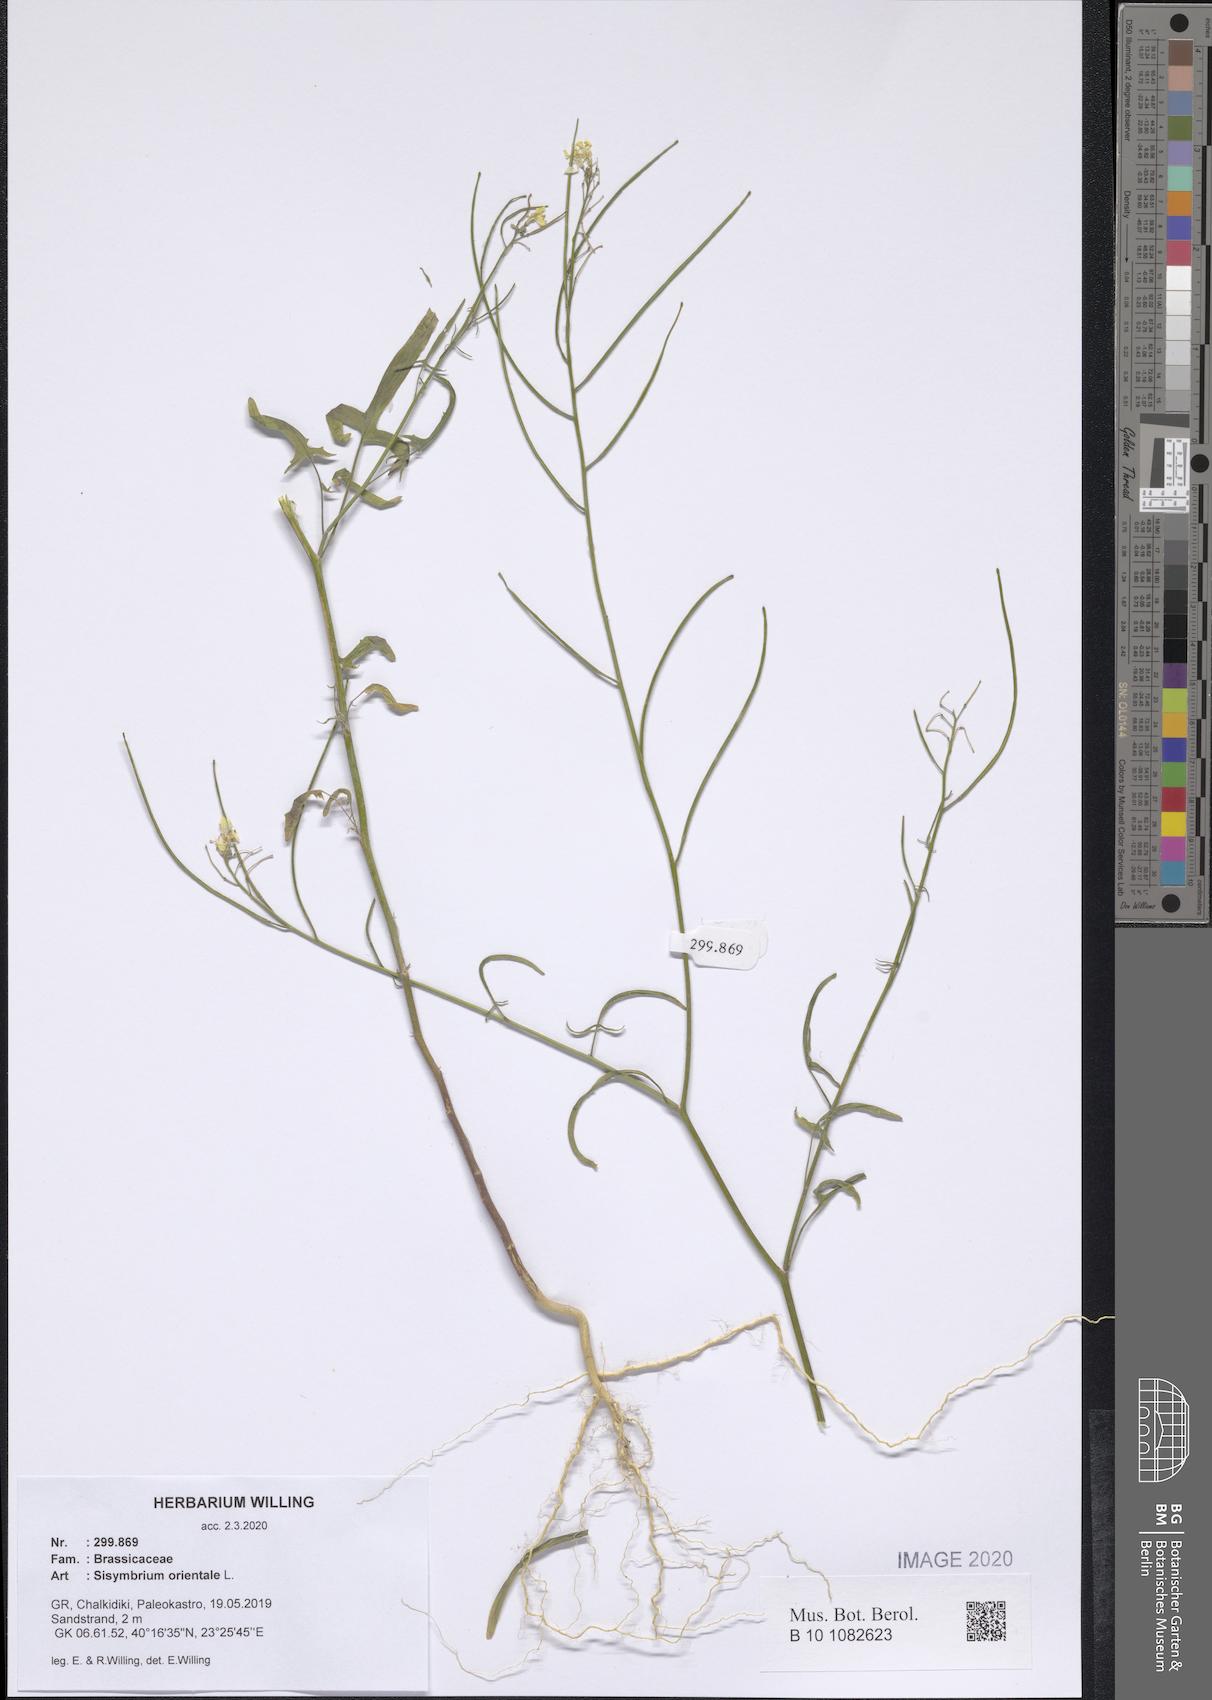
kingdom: Plantae
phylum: Tracheophyta
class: Magnoliopsida
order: Brassicales
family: Brassicaceae
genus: Sisymbrium
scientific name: Sisymbrium orientale
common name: Eastern rocket
